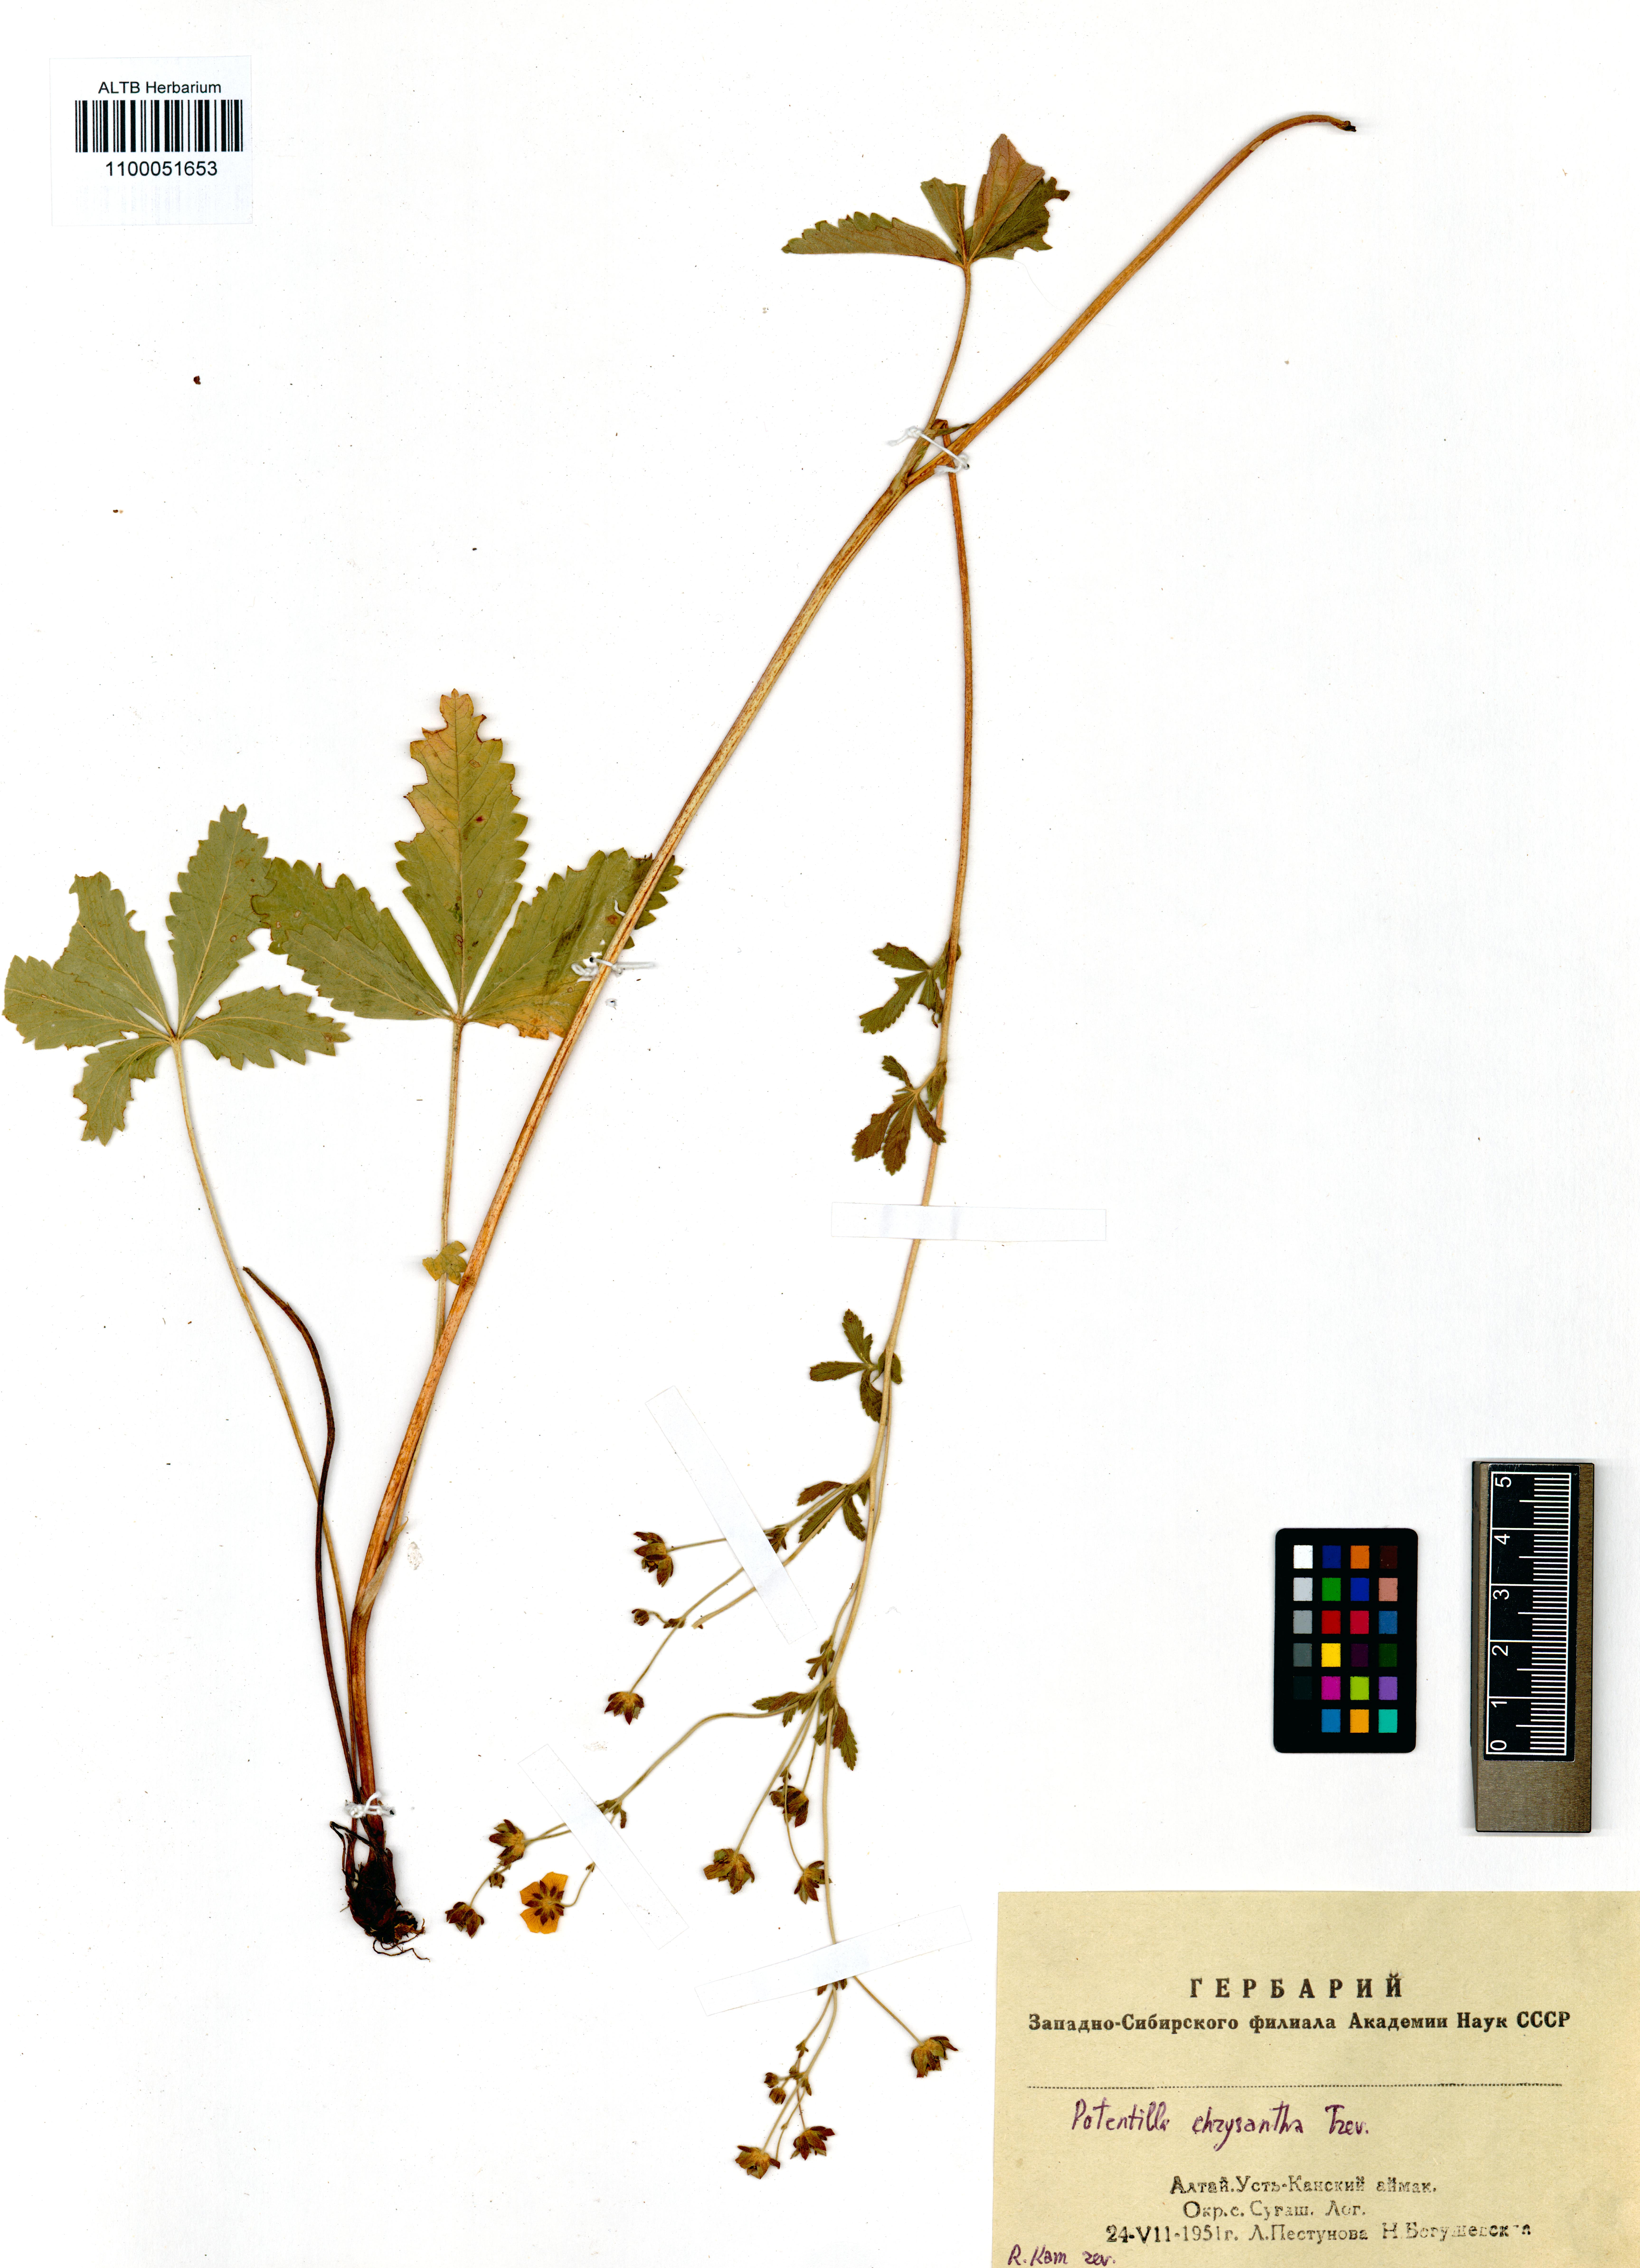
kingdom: Plantae
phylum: Tracheophyta
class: Magnoliopsida
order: Rosales
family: Rosaceae
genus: Potentilla
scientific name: Potentilla chrysantha
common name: Thuringian cinquefoil
